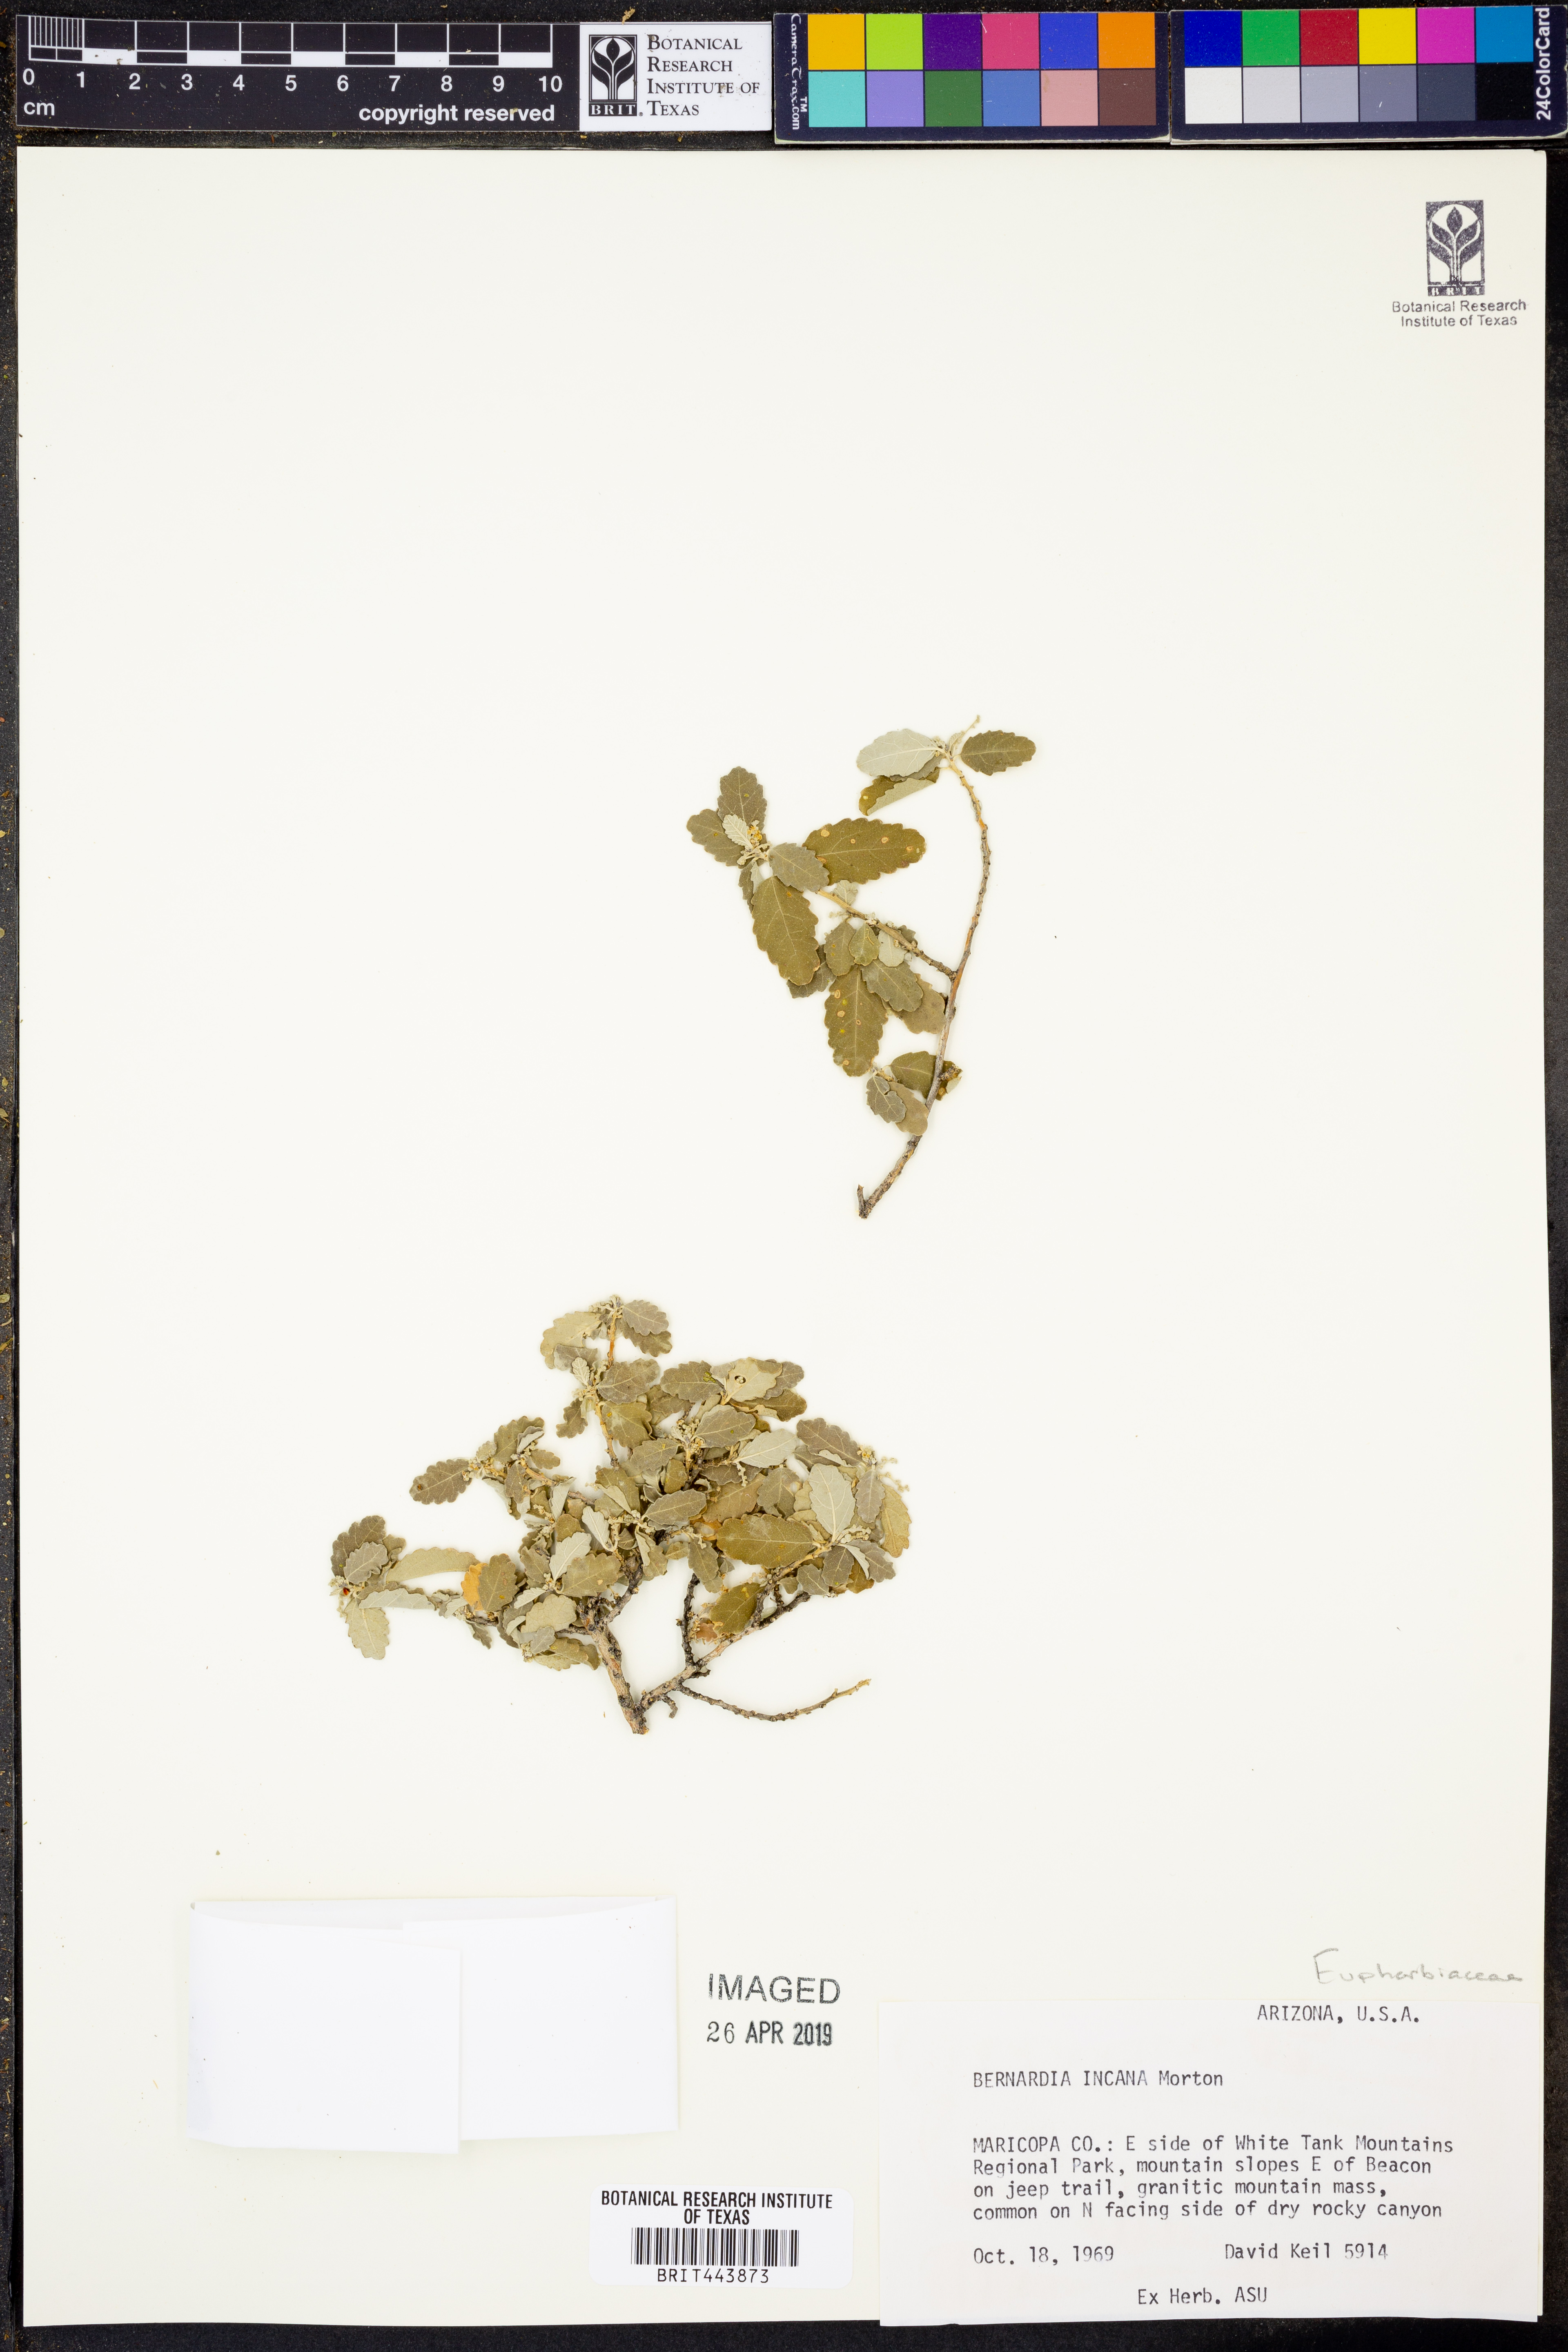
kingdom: Plantae
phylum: Tracheophyta
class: Magnoliopsida
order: Malpighiales
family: Euphorbiaceae
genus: Bernardia
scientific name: Bernardia incana
